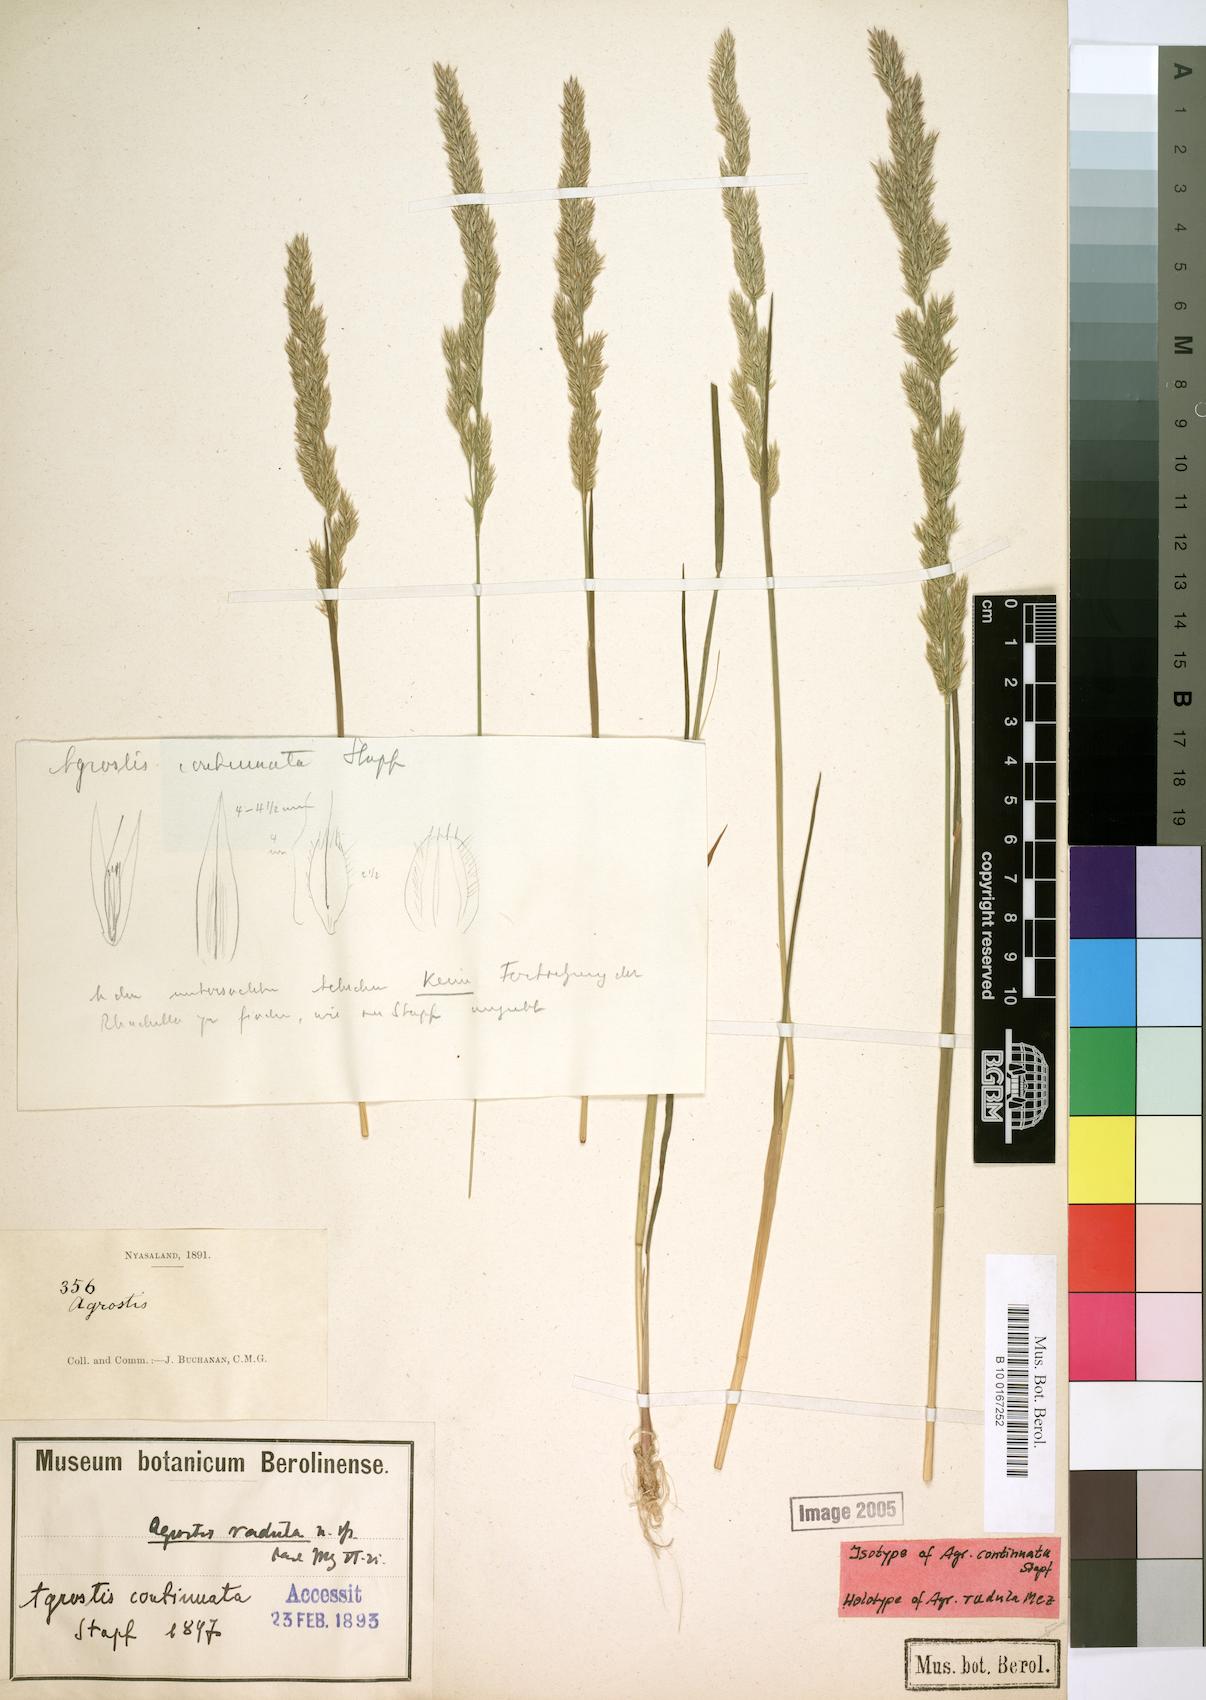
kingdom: Plantae
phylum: Tracheophyta
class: Liliopsida
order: Poales
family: Poaceae
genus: Agrostis
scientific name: Agrostis continuata
